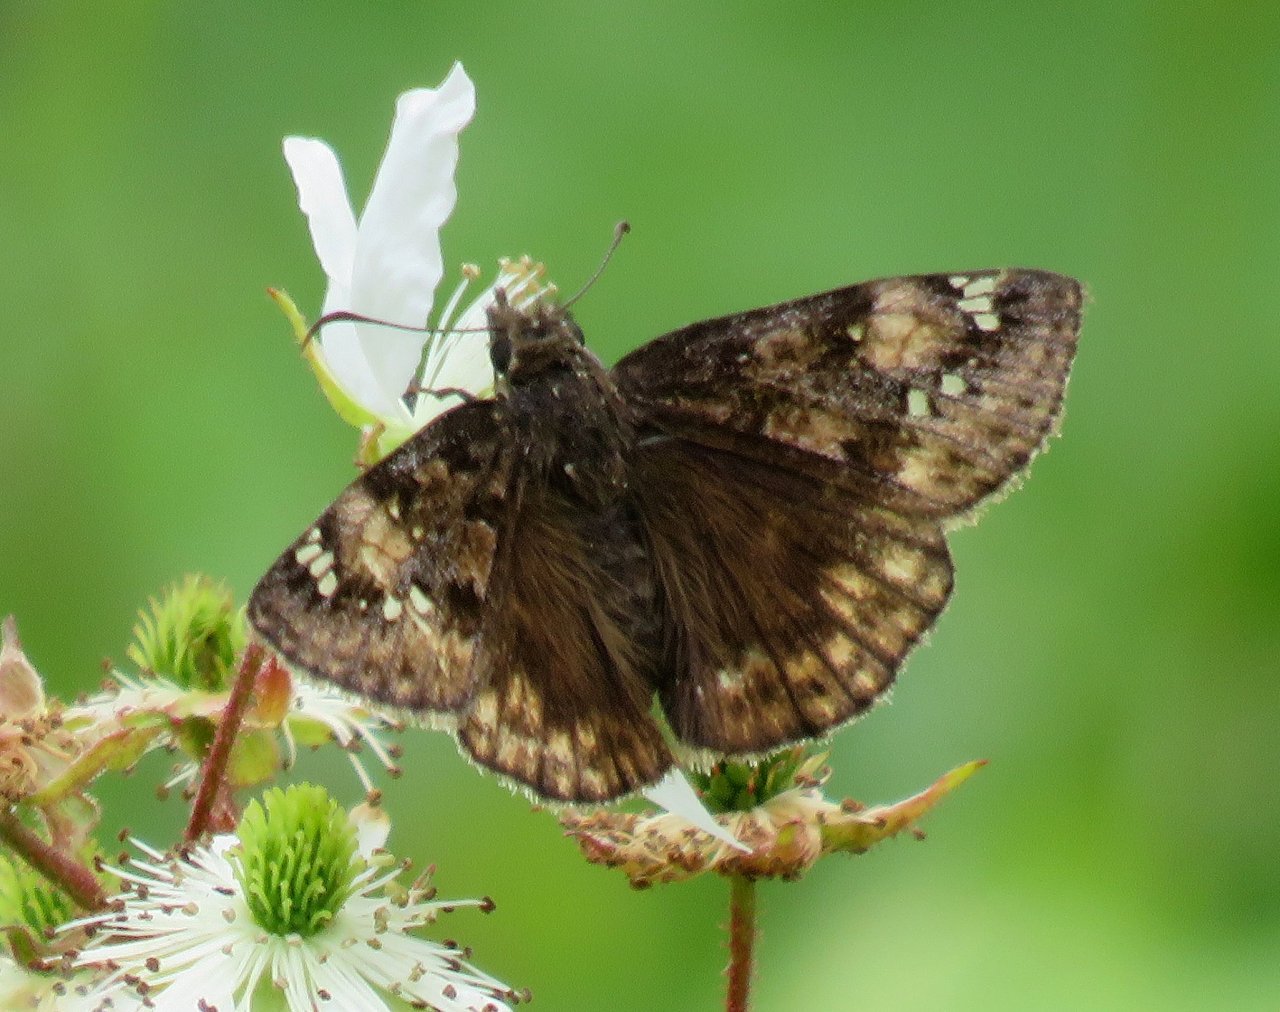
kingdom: Animalia
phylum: Arthropoda
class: Insecta
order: Lepidoptera
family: Hesperiidae
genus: Gesta
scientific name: Gesta
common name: Juvenal's Duskywing
